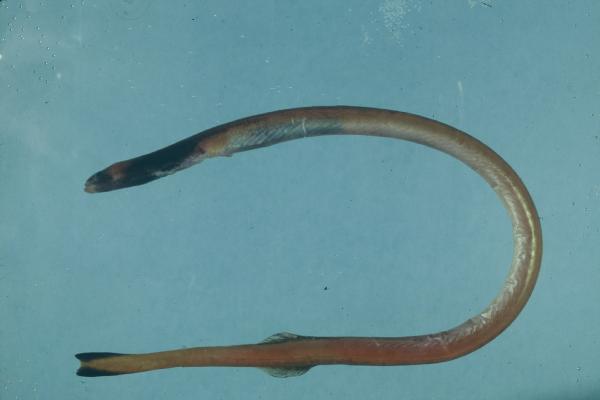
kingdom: Animalia
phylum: Chordata
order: Anguilliformes
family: Moringuidae
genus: Moringua
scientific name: Moringua ferruginea
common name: Rusty spaghetti eel
